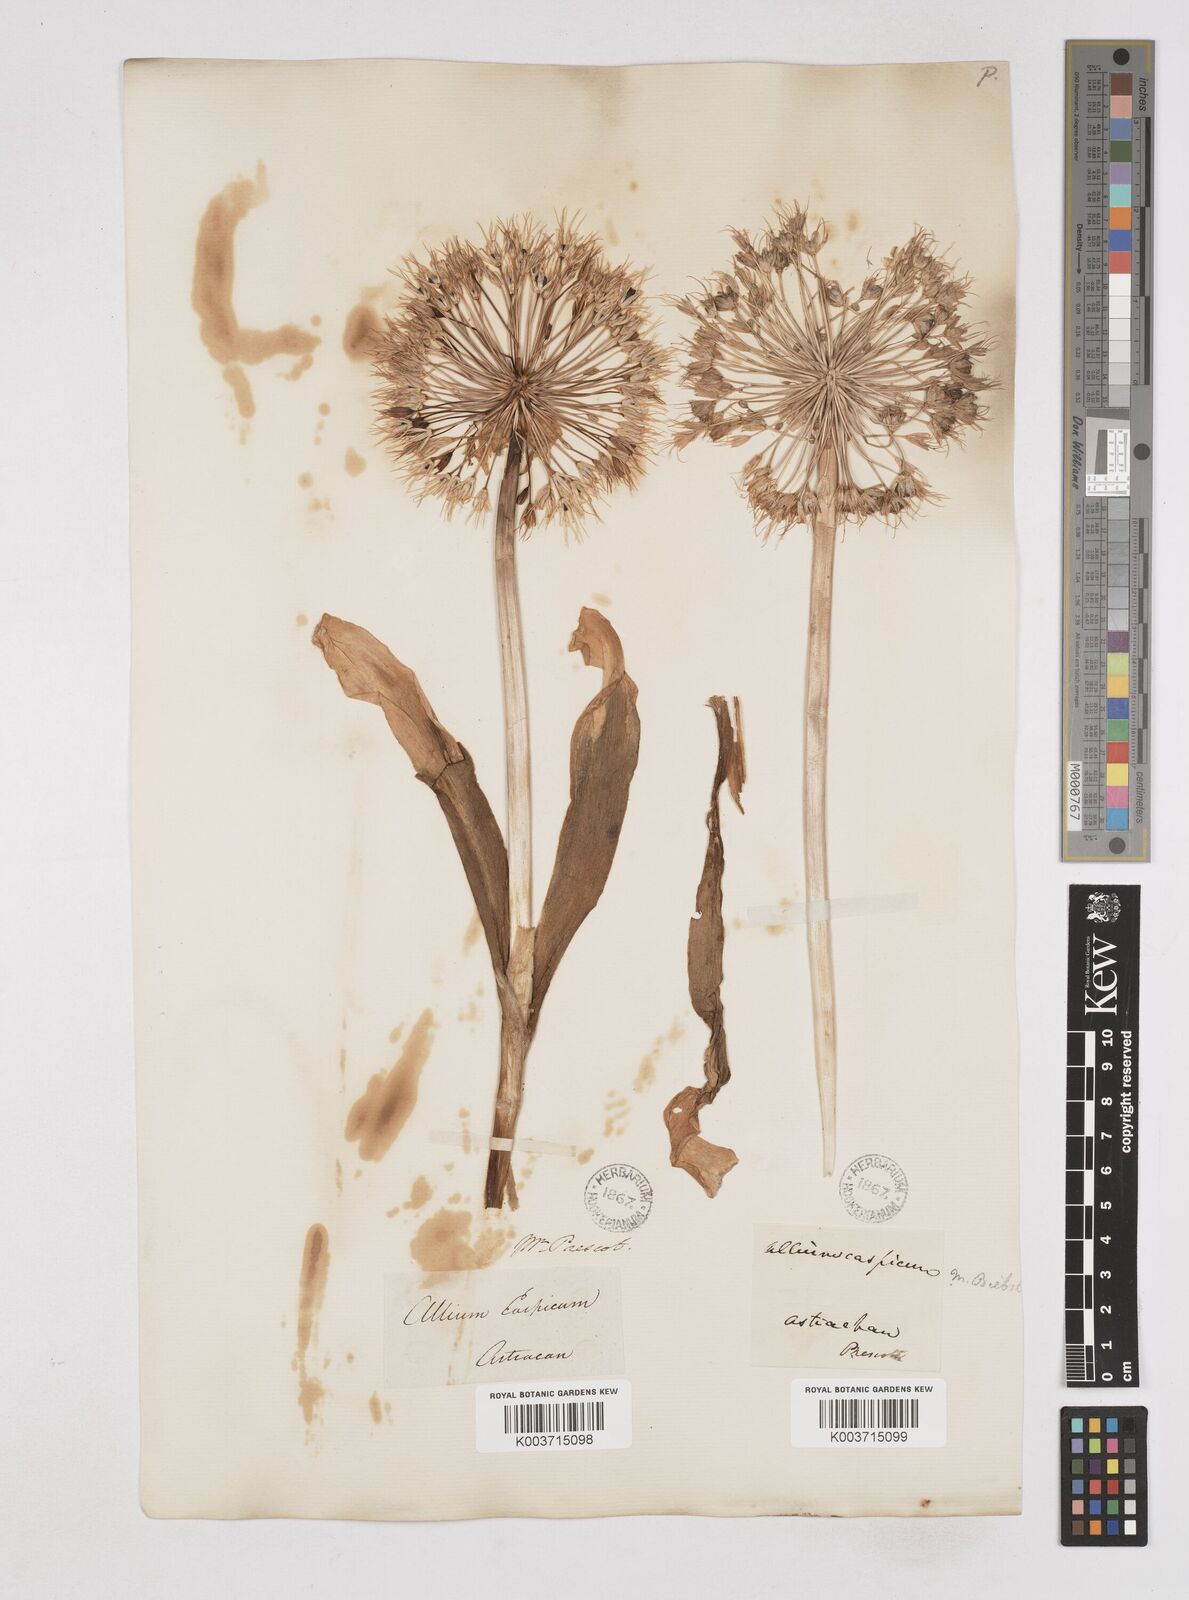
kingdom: Plantae
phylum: Tracheophyta
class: Liliopsida
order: Asparagales
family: Amaryllidaceae
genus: Allium
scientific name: Allium caspium
